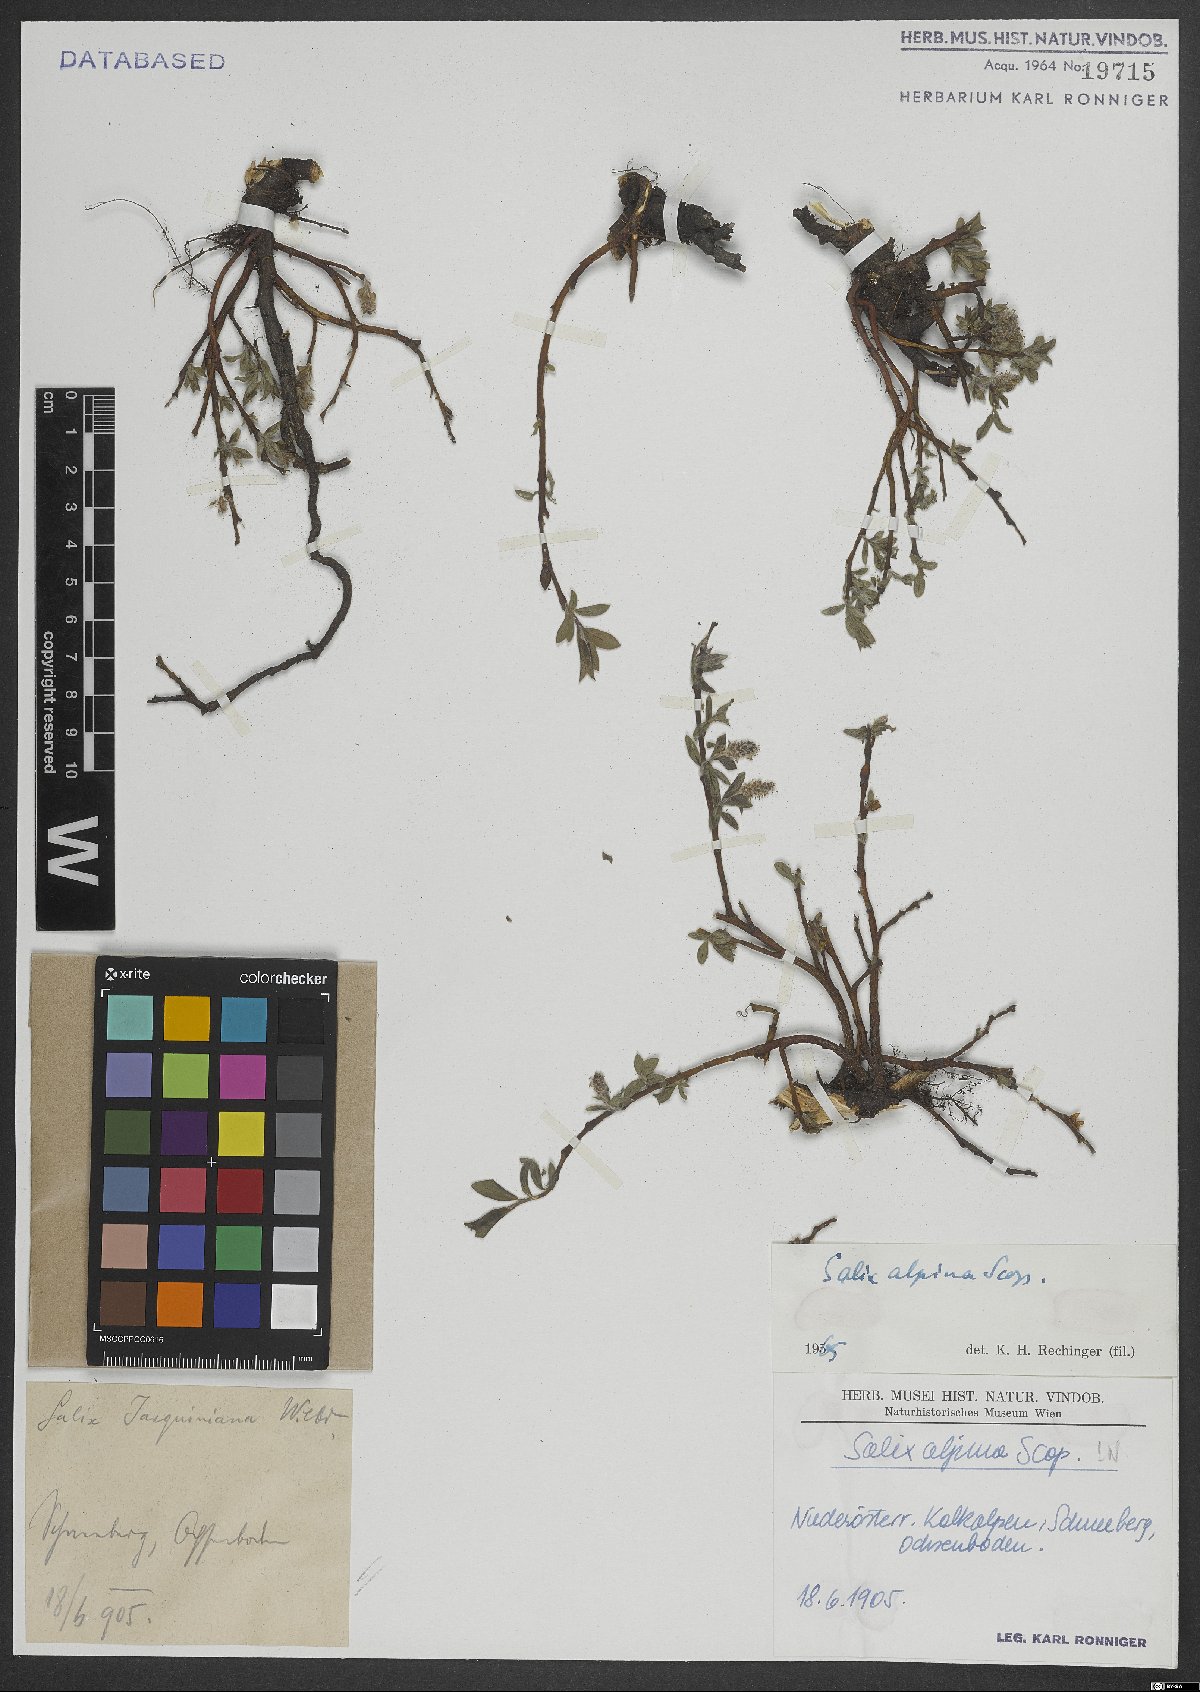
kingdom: Plantae
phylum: Tracheophyta
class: Magnoliopsida
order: Malpighiales
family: Salicaceae
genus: Salix
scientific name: Salix alpina
